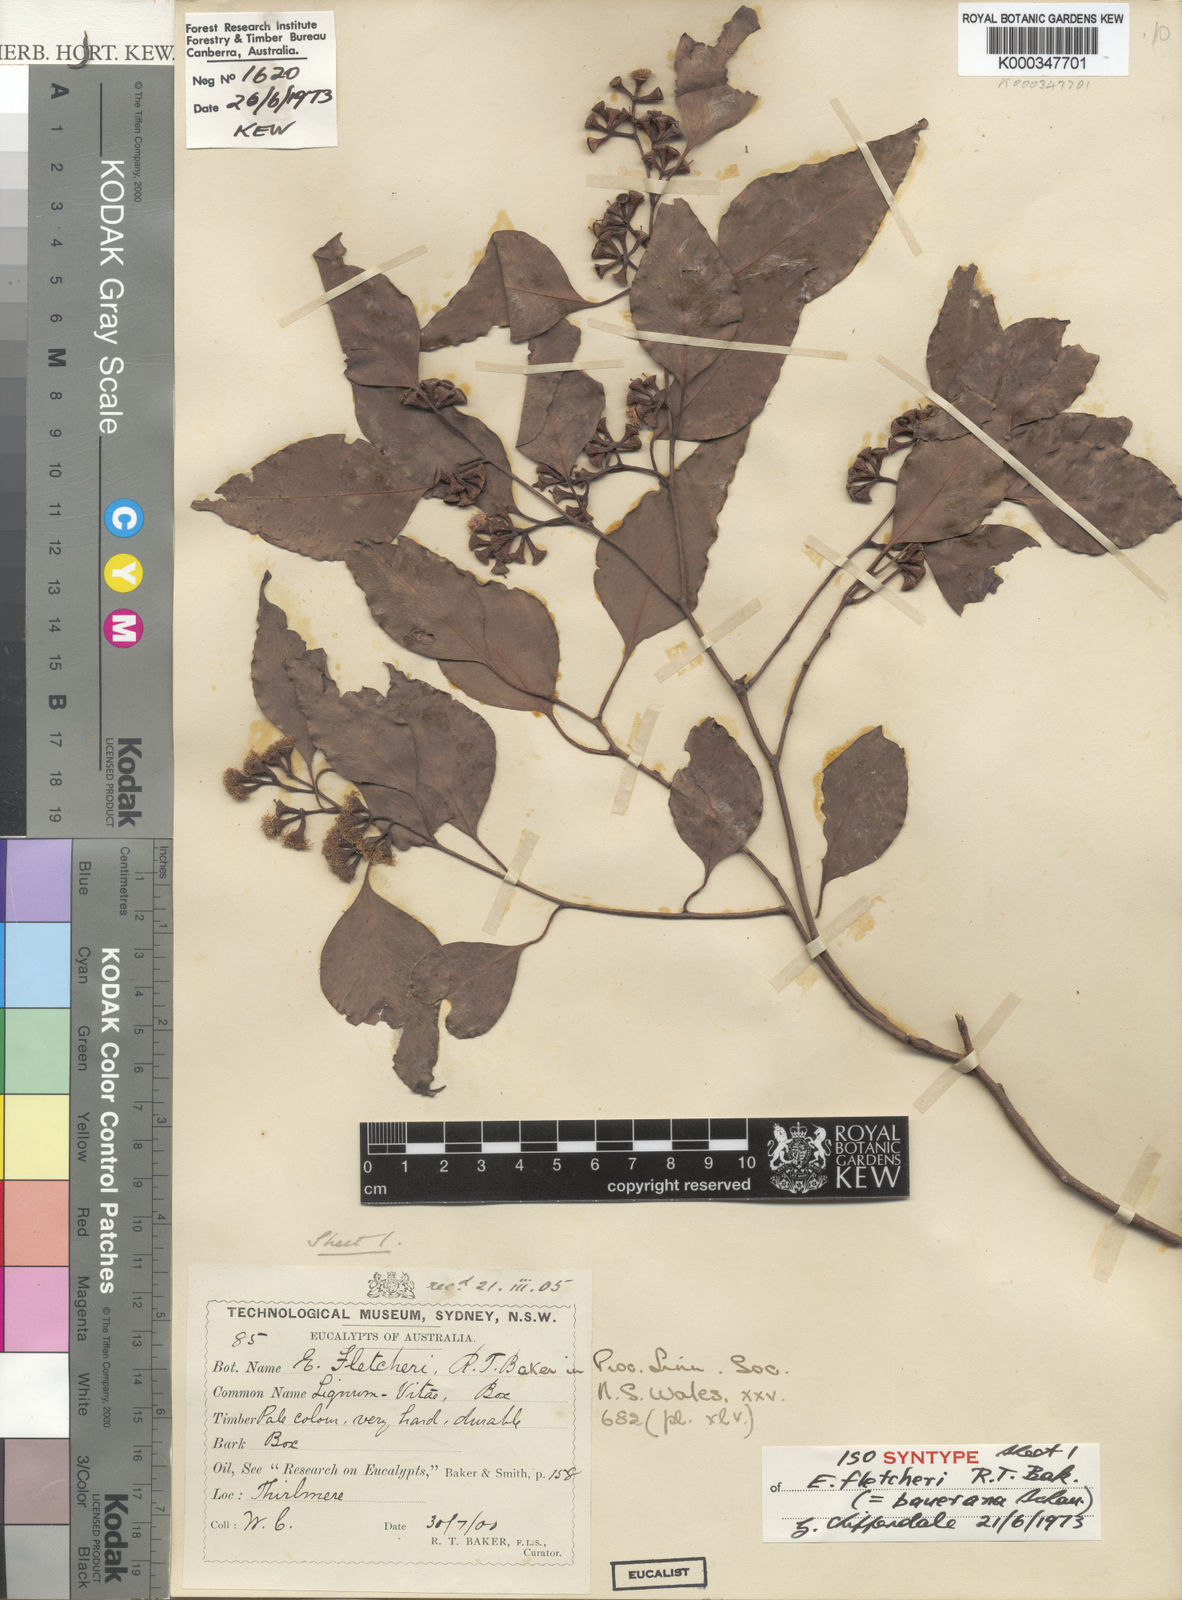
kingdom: Plantae
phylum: Tracheophyta
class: Magnoliopsida
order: Myrtales
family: Myrtaceae
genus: Eucalyptus
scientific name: Eucalyptus baueriana
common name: Round-leaf-box
